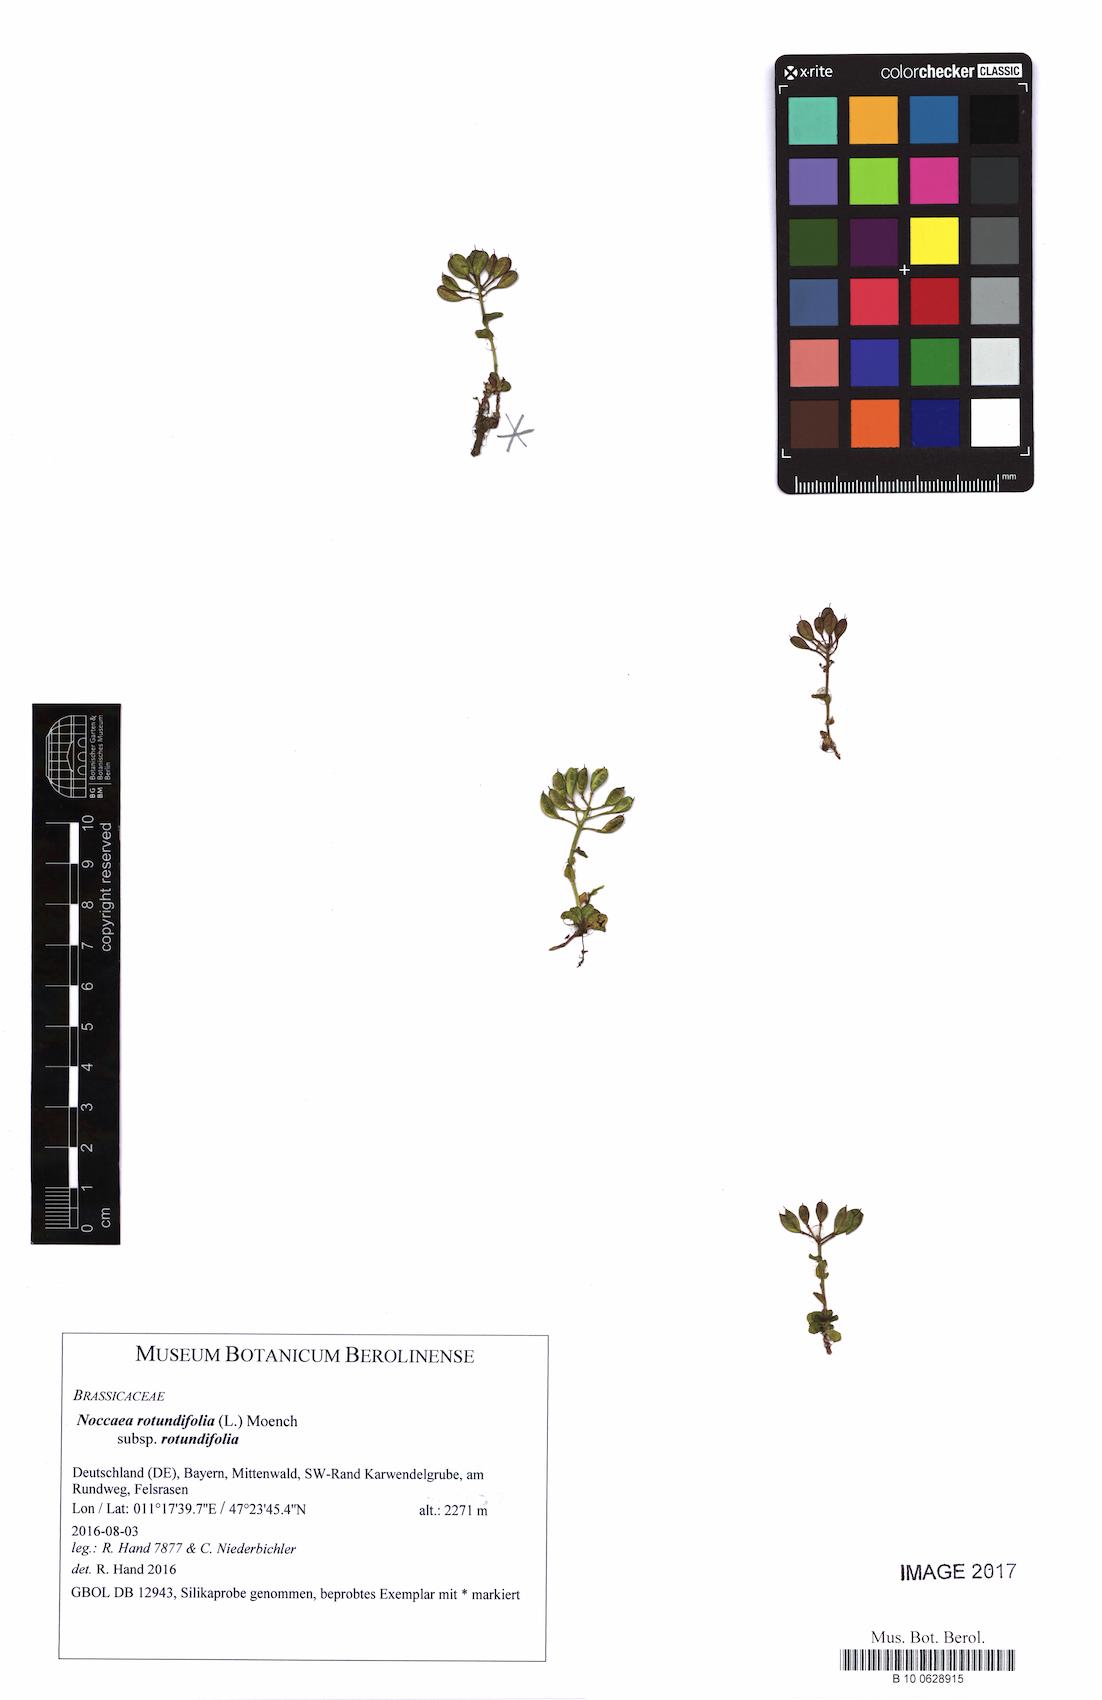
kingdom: Plantae
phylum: Tracheophyta
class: Magnoliopsida
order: Brassicales
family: Brassicaceae
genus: Noccaea
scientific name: Noccaea rotundifolia
